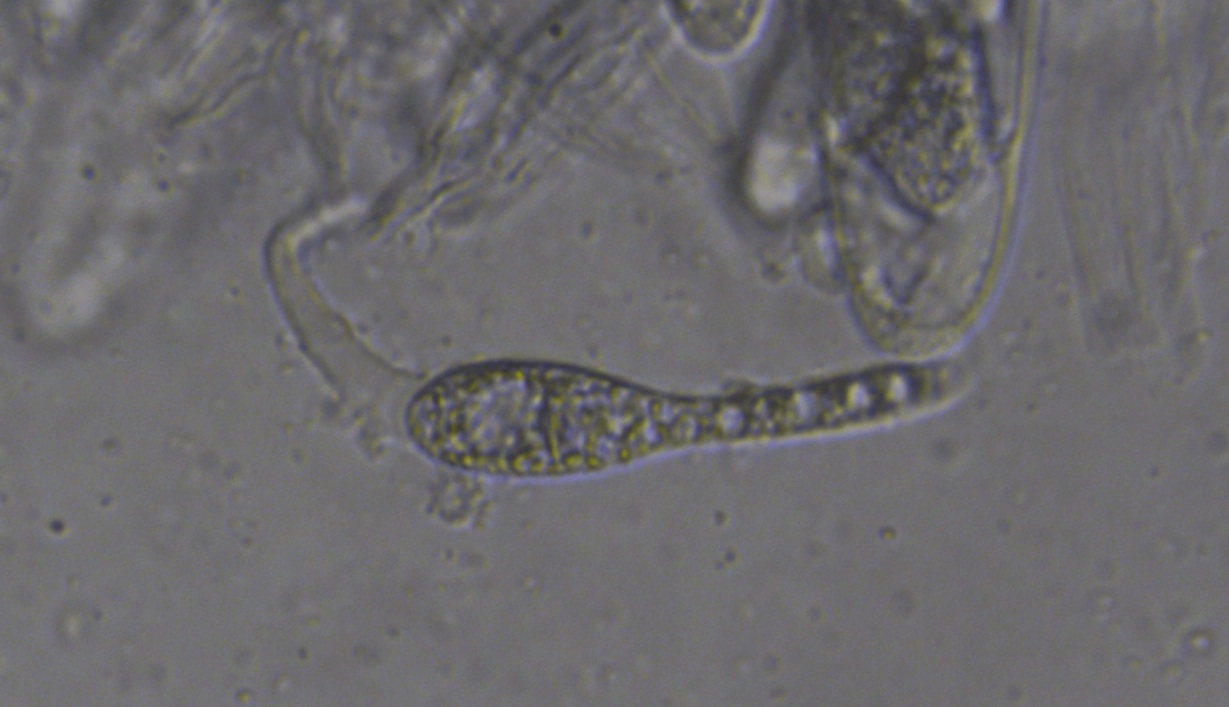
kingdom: Fungi
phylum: Ascomycota
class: Sordariomycetes
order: Sordariales
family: Podosporaceae
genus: Triangularia
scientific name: Triangularia pauciseta
